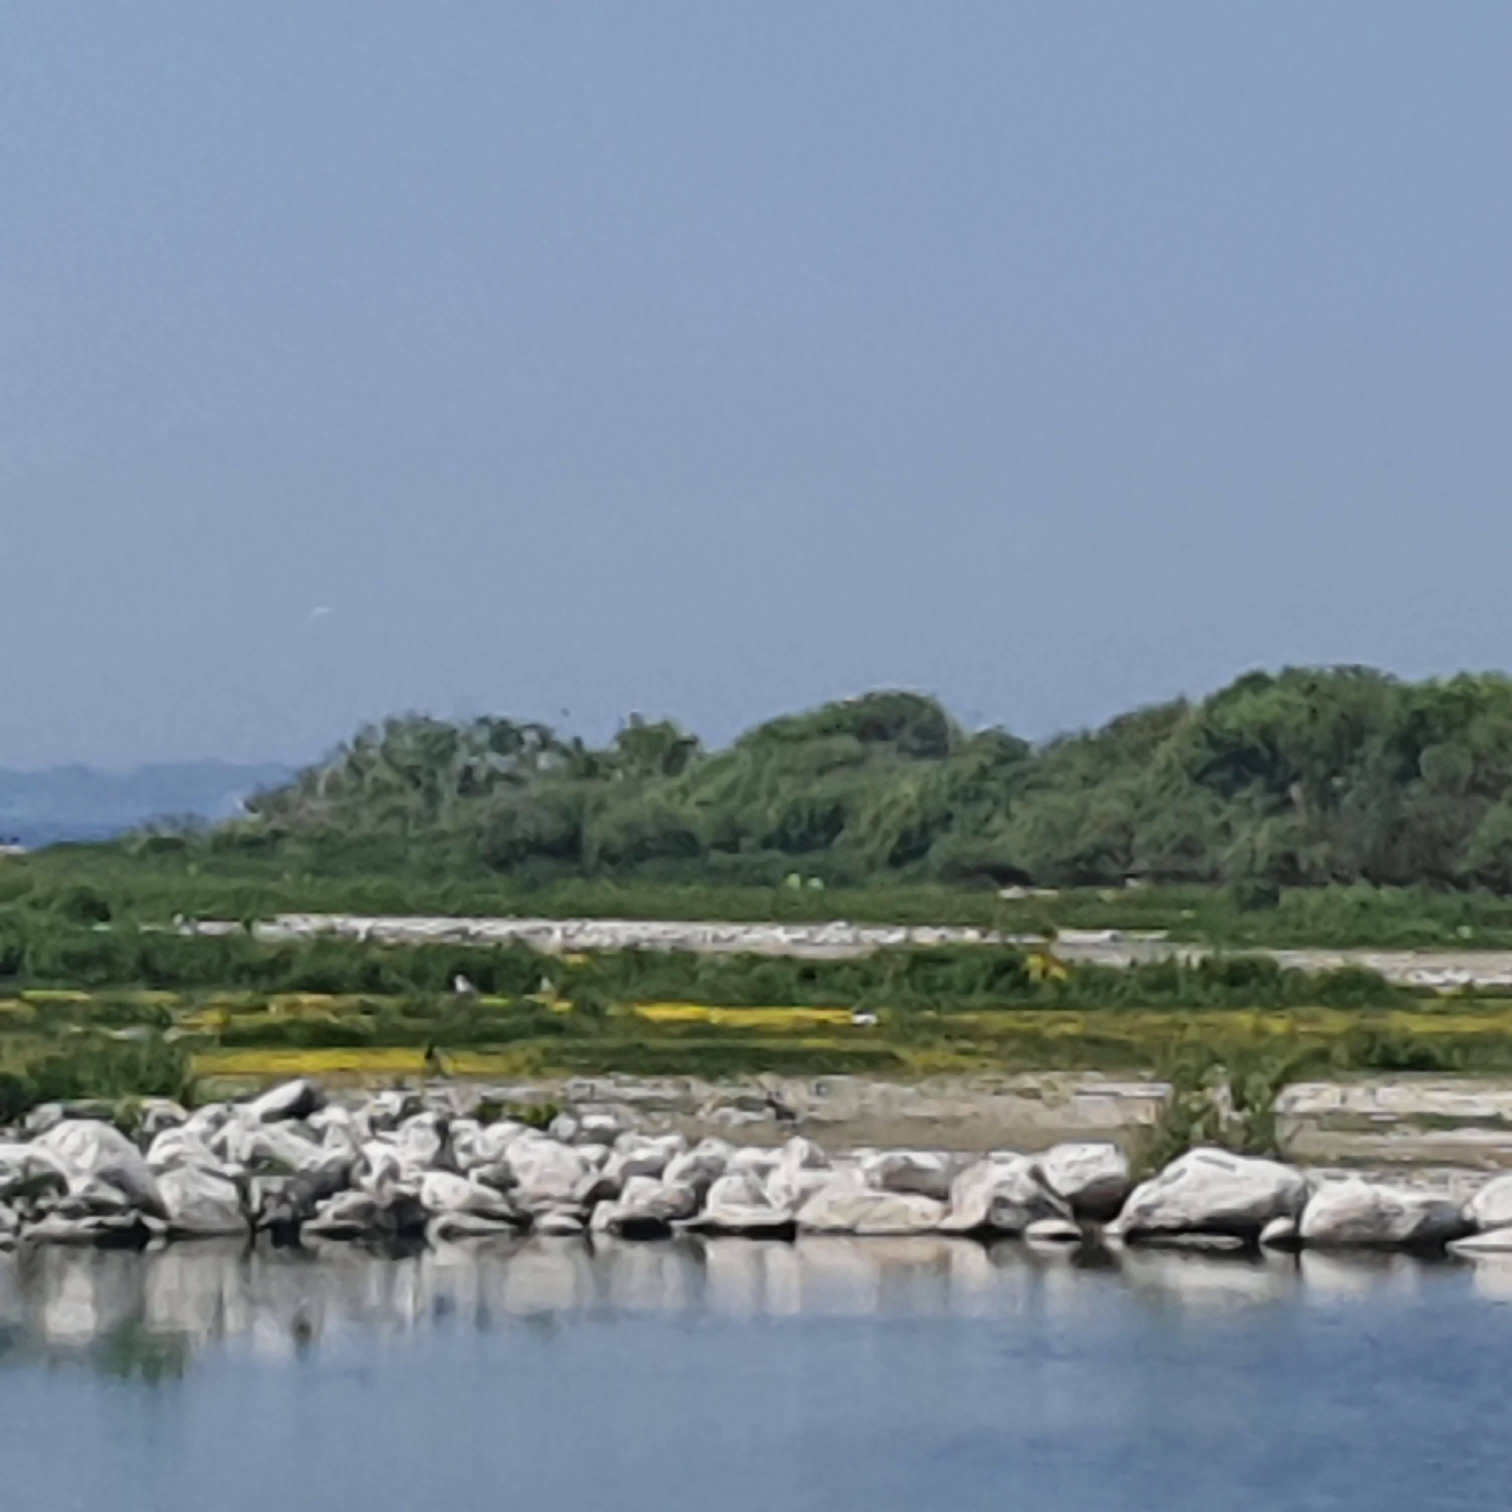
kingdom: Animalia
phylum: Chordata
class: Aves
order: Suliformes
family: Phalacrocoracidae
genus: Phalacrocorax
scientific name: Phalacrocorax carbo
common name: Skarv
